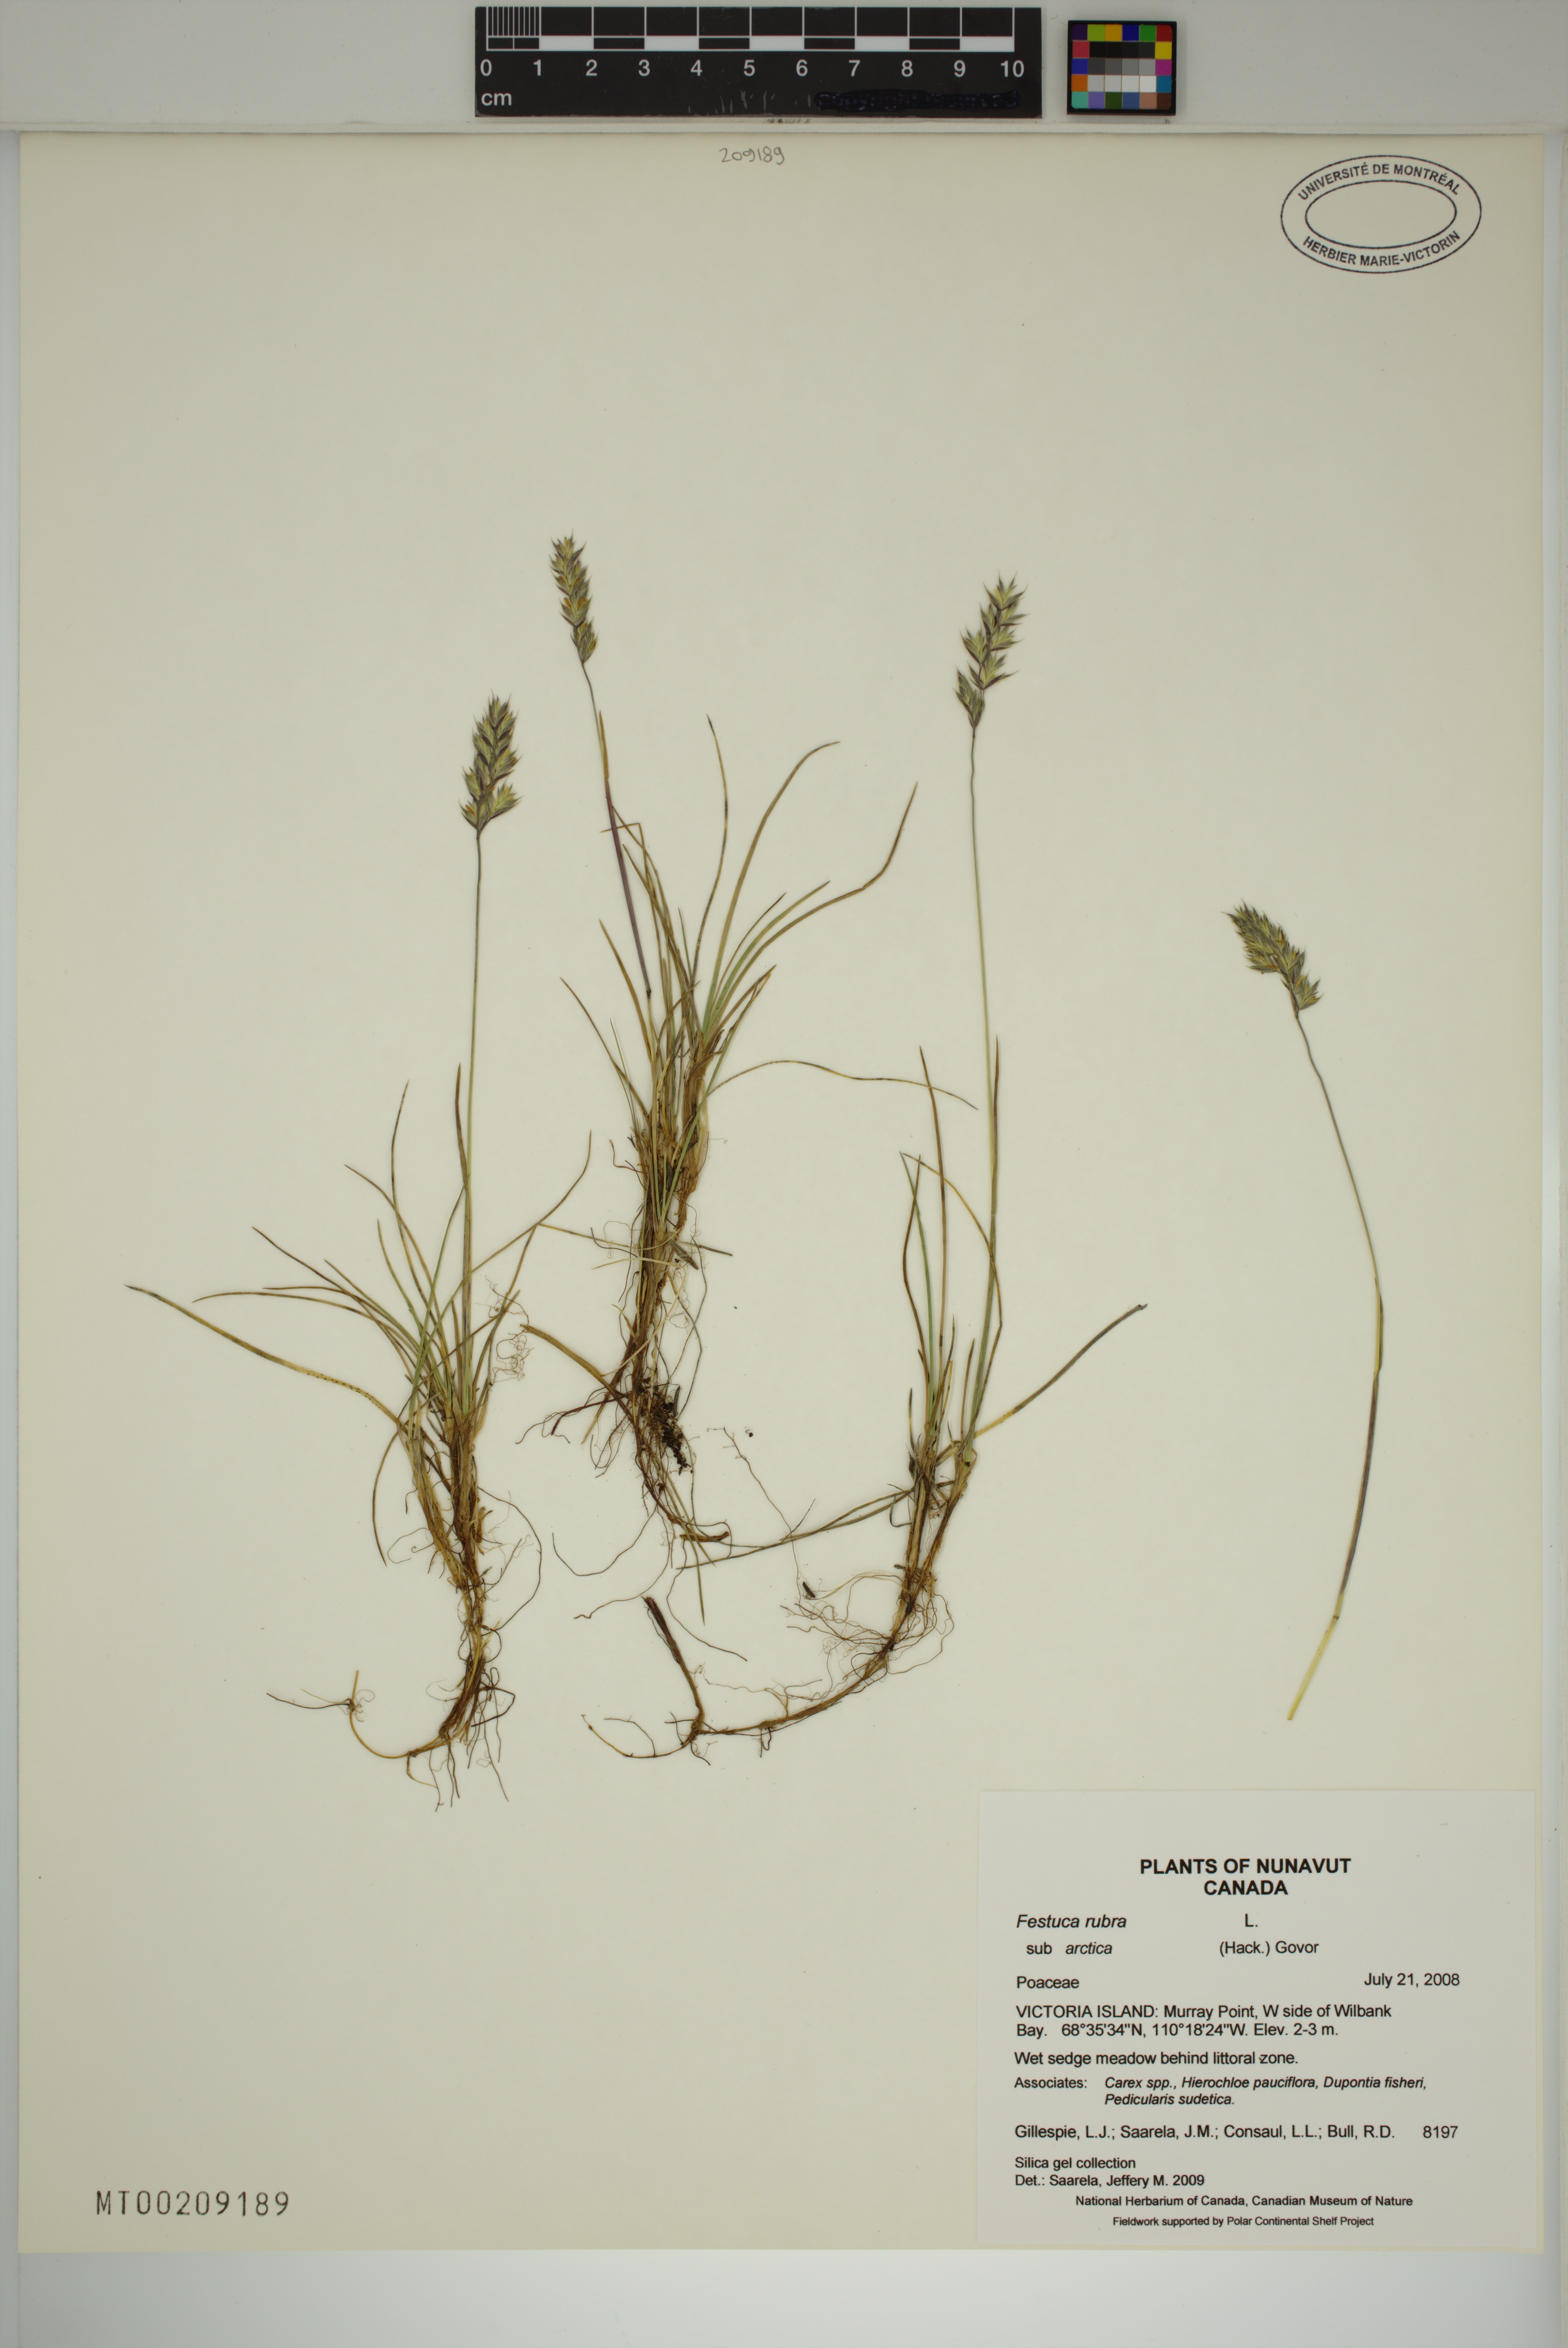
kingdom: Plantae
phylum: Tracheophyta
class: Liliopsida
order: Poales
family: Poaceae
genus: Festuca
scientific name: Festuca richardsonii
